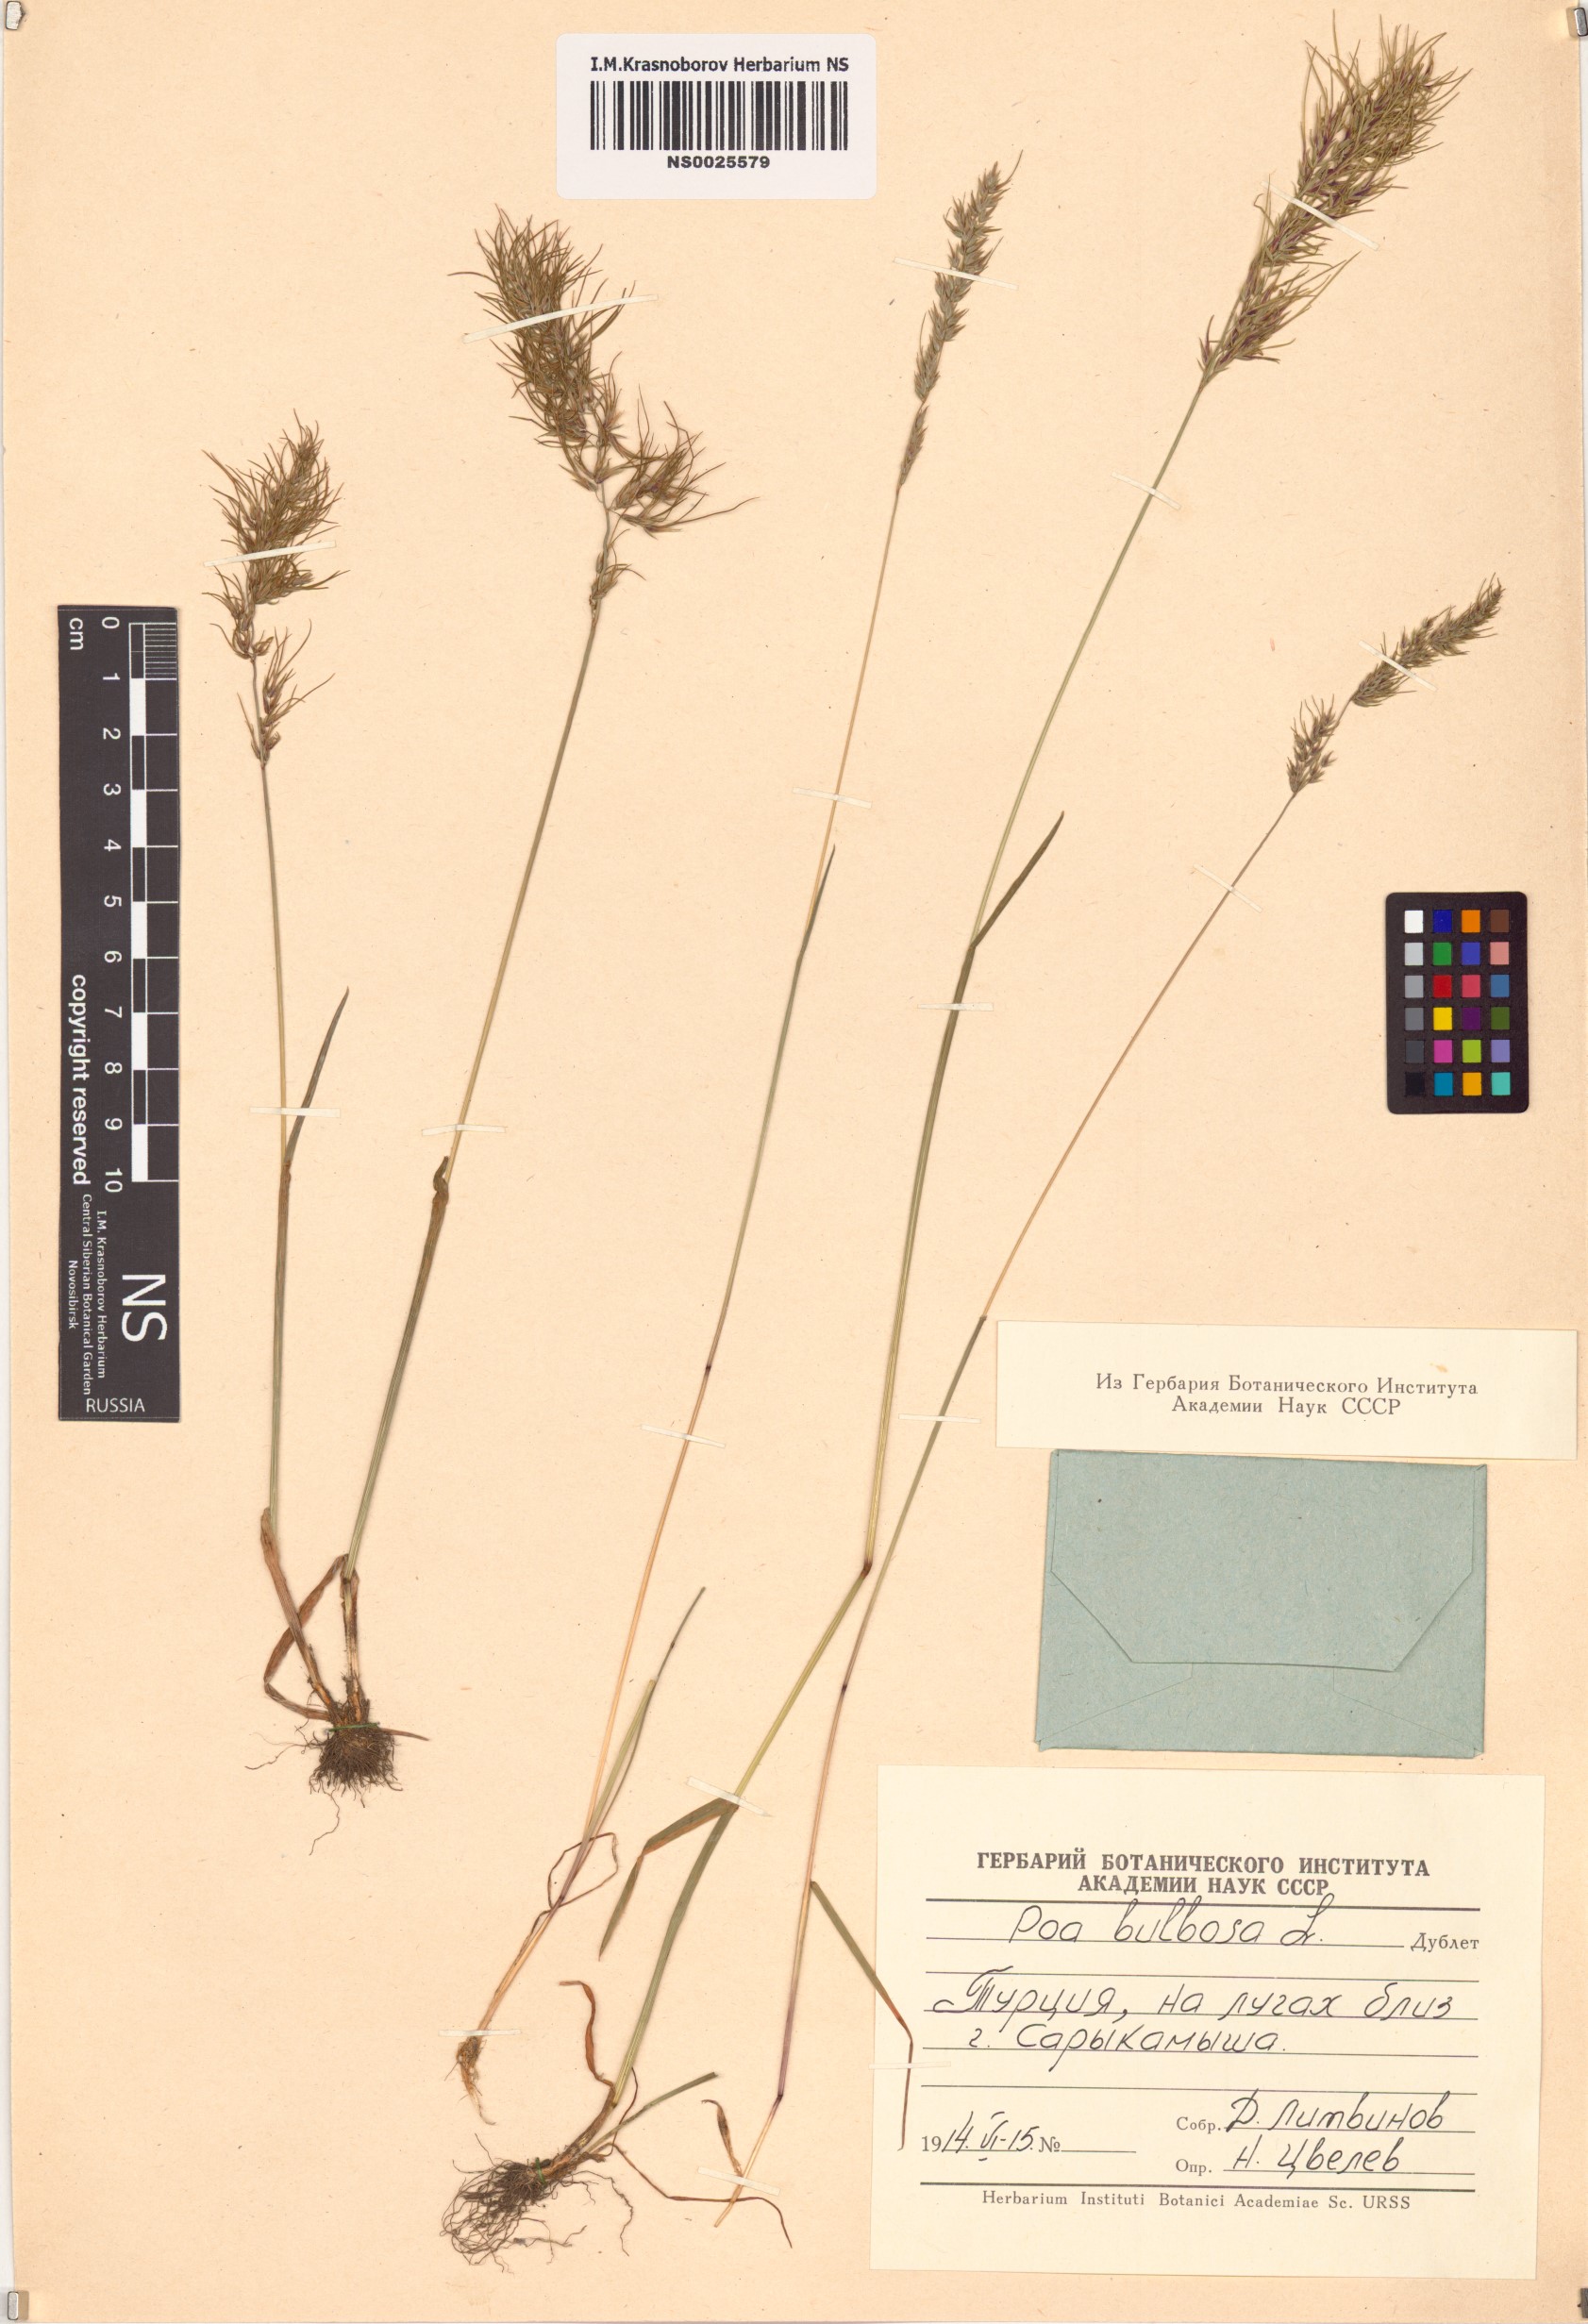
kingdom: Plantae
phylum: Tracheophyta
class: Liliopsida
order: Poales
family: Poaceae
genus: Poa
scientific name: Poa bulbosa
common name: Bulbous bluegrass
